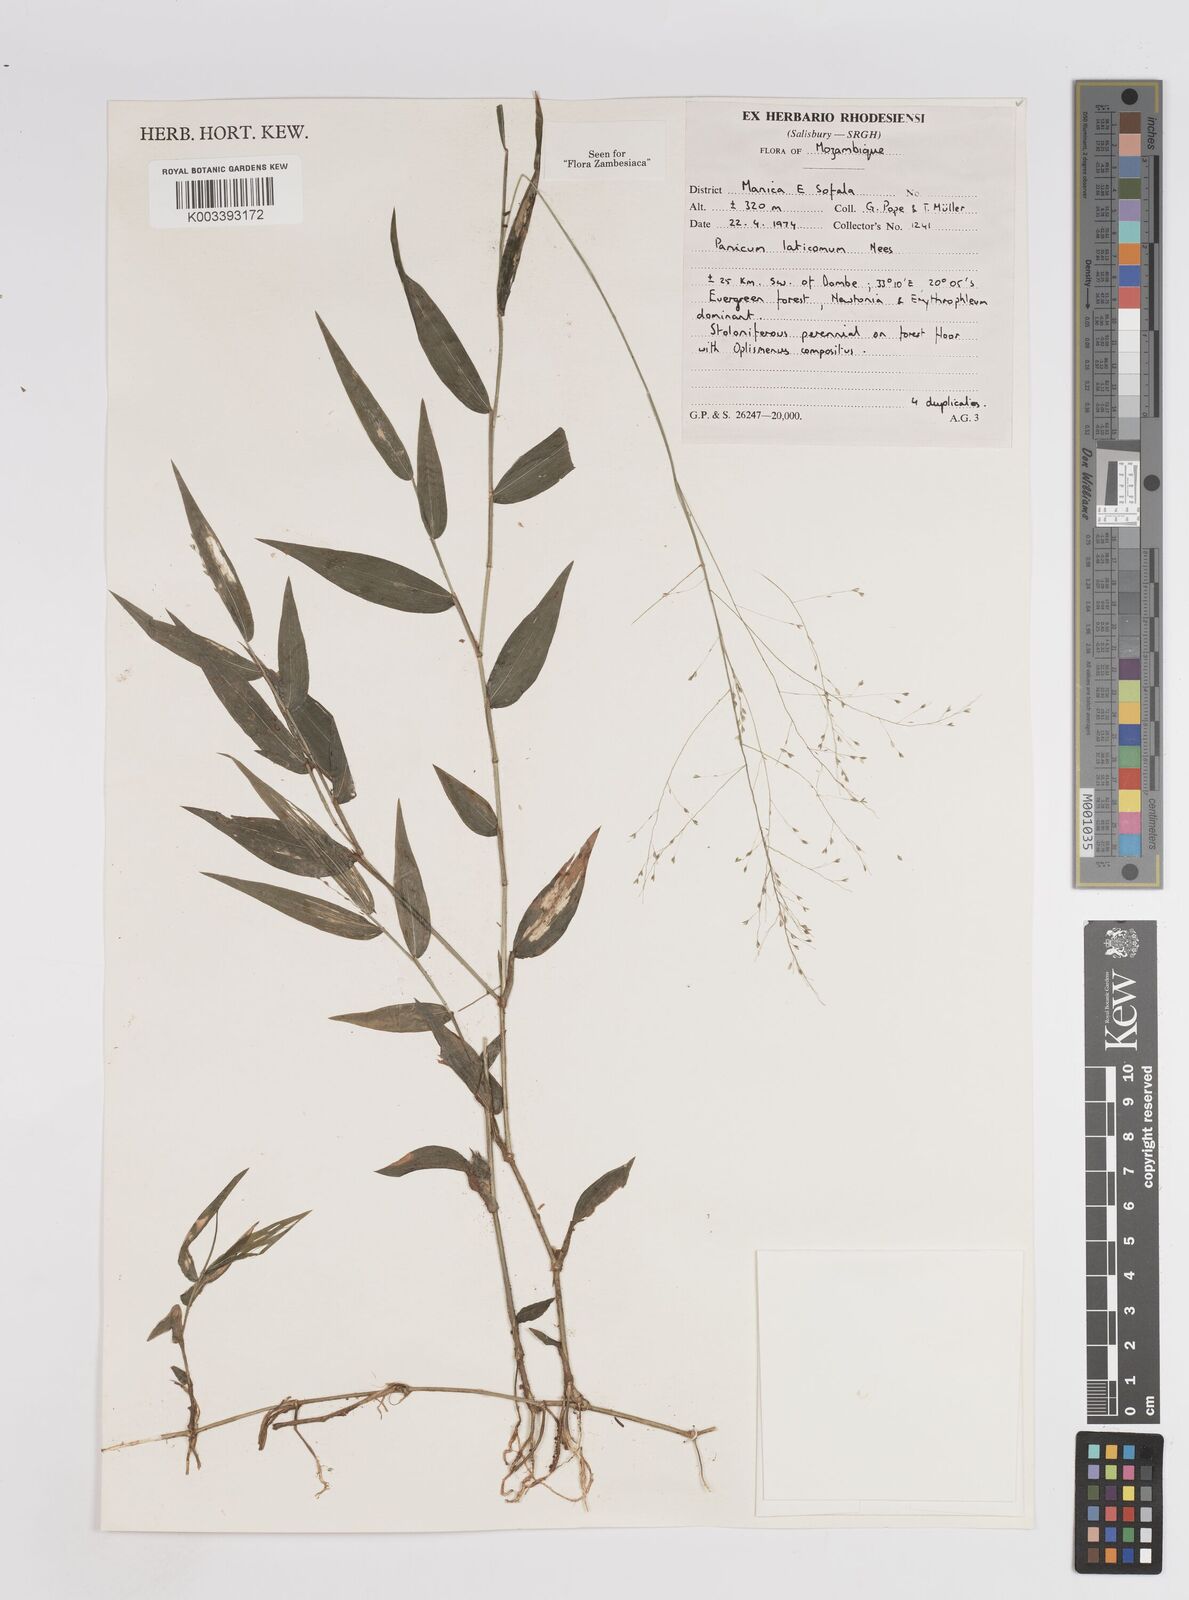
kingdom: Plantae
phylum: Tracheophyta
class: Liliopsida
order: Poales
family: Poaceae
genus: Panicum
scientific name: Panicum laticomum
